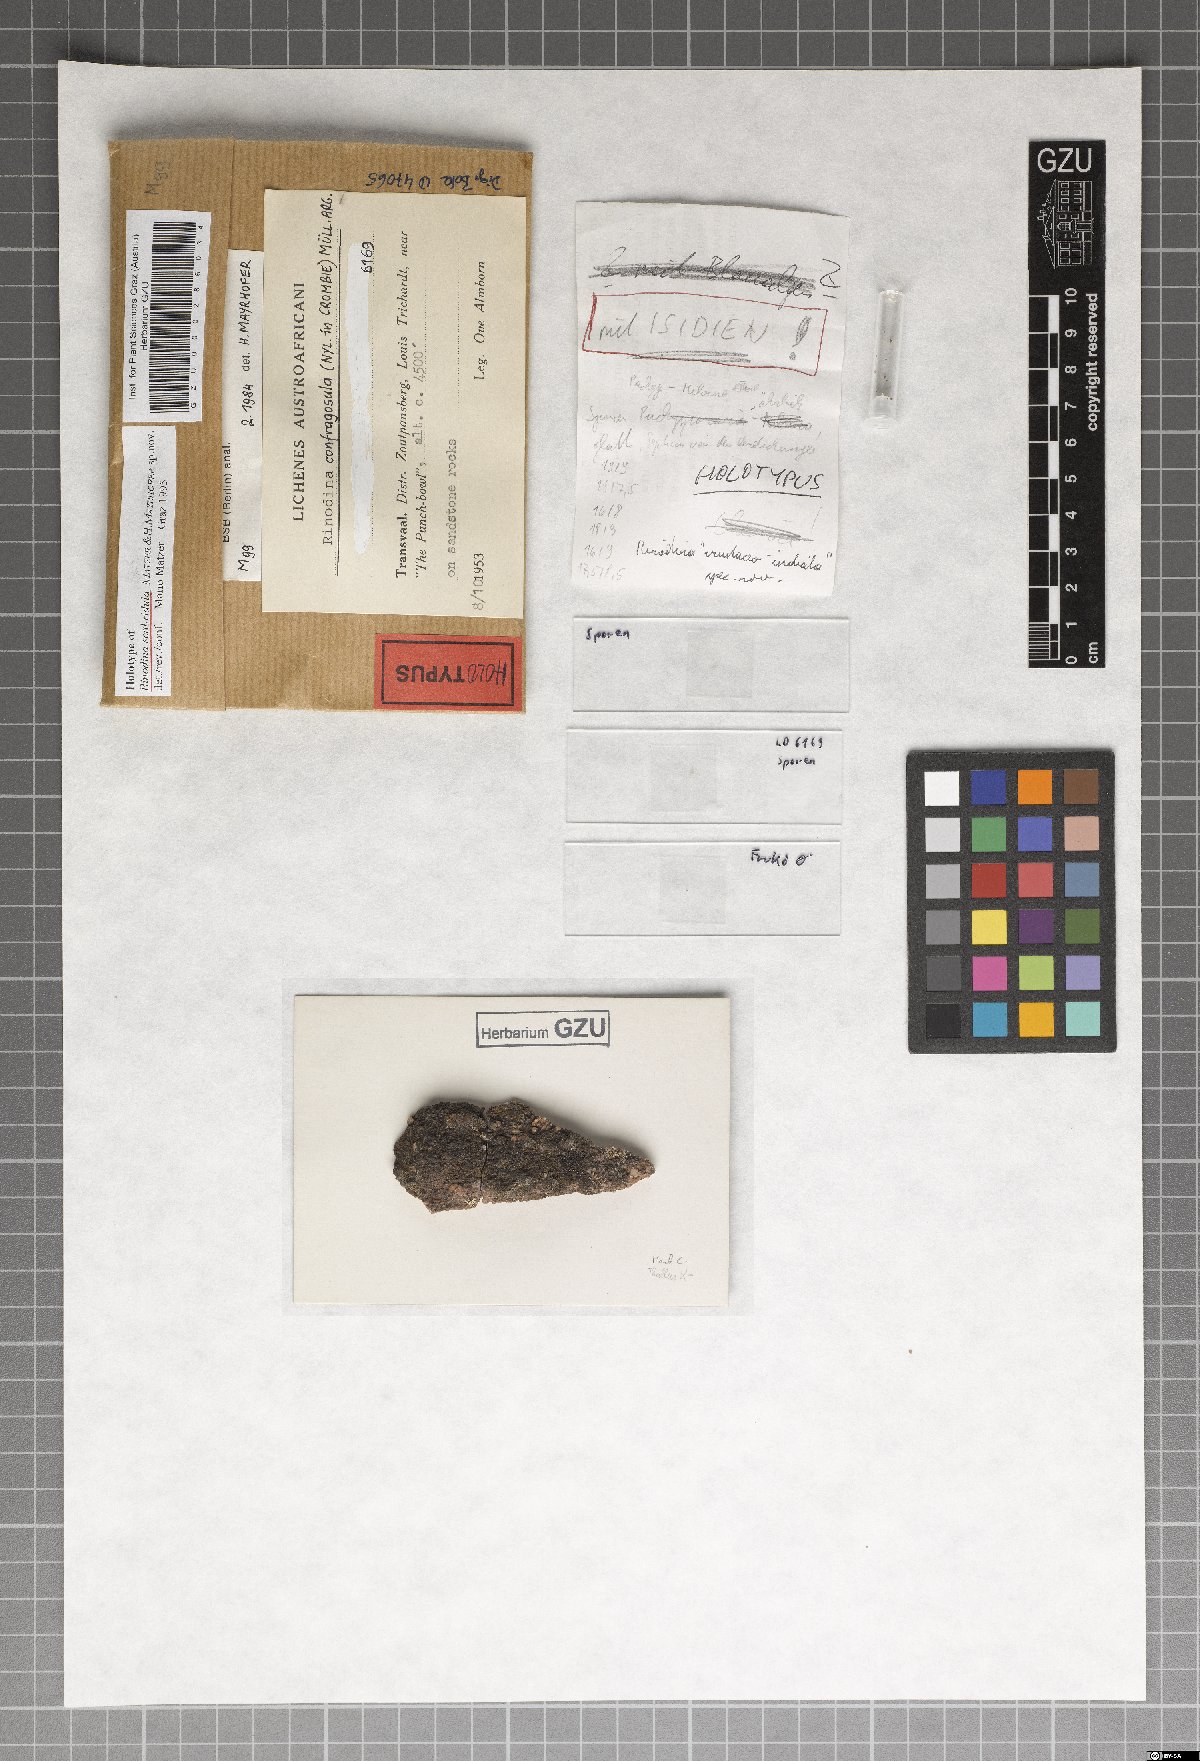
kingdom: Fungi
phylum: Ascomycota
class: Lecanoromycetes
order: Caliciales
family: Physciaceae
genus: Rinodina
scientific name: Rinodina
